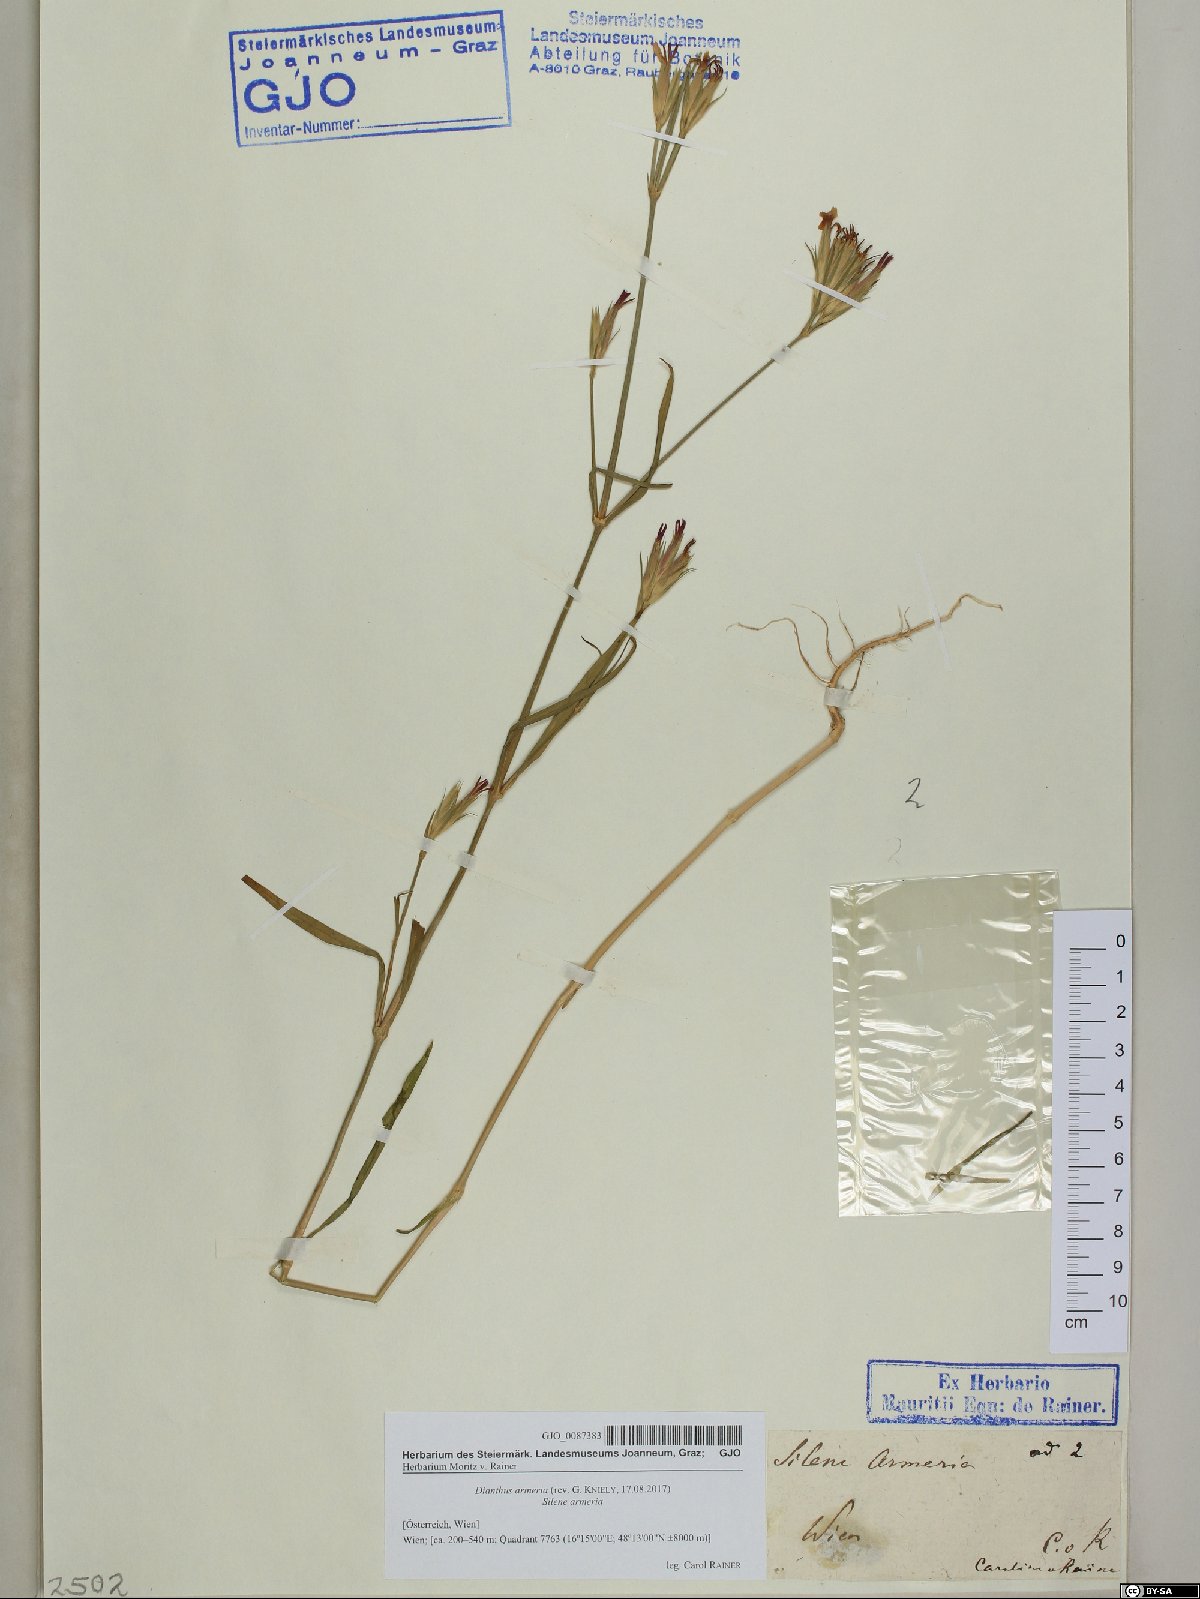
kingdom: Plantae
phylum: Tracheophyta
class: Magnoliopsida
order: Caryophyllales
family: Caryophyllaceae
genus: Dianthus
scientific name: Dianthus armeria
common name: Deptford pink
